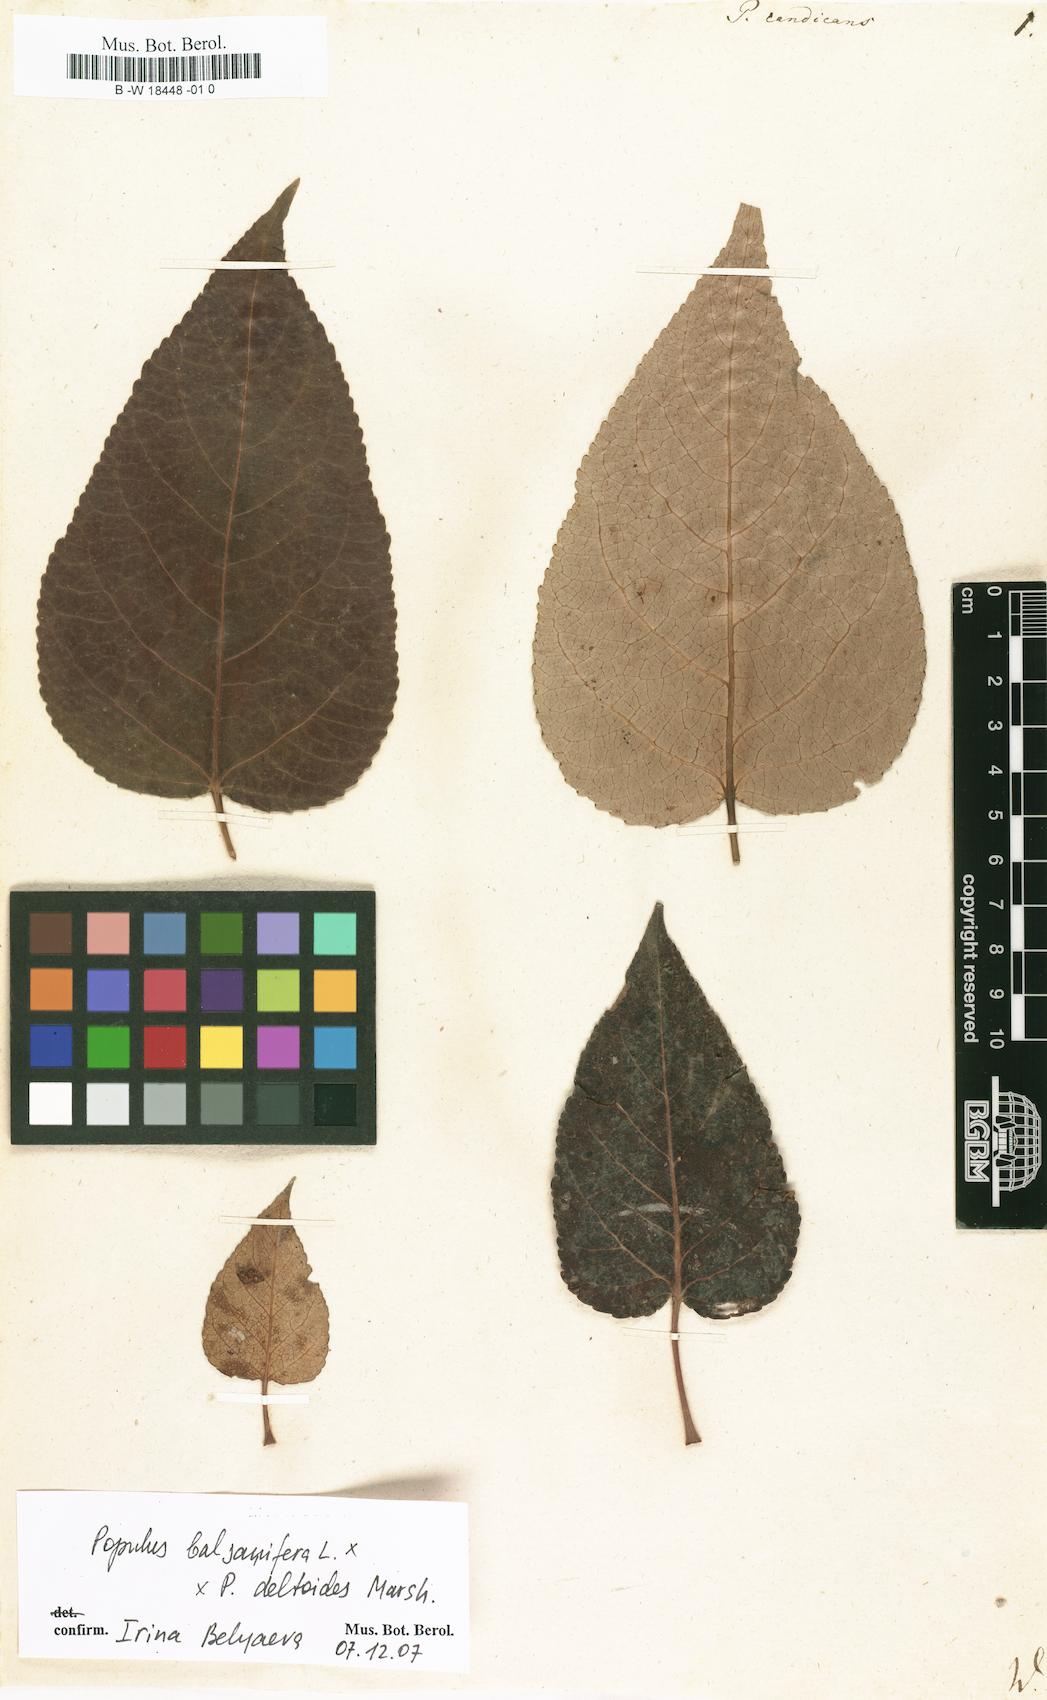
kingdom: Plantae
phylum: Tracheophyta
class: Magnoliopsida
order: Malpighiales
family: Salicaceae
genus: Populus
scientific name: Populus balsamifera
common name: Balsam poplar
